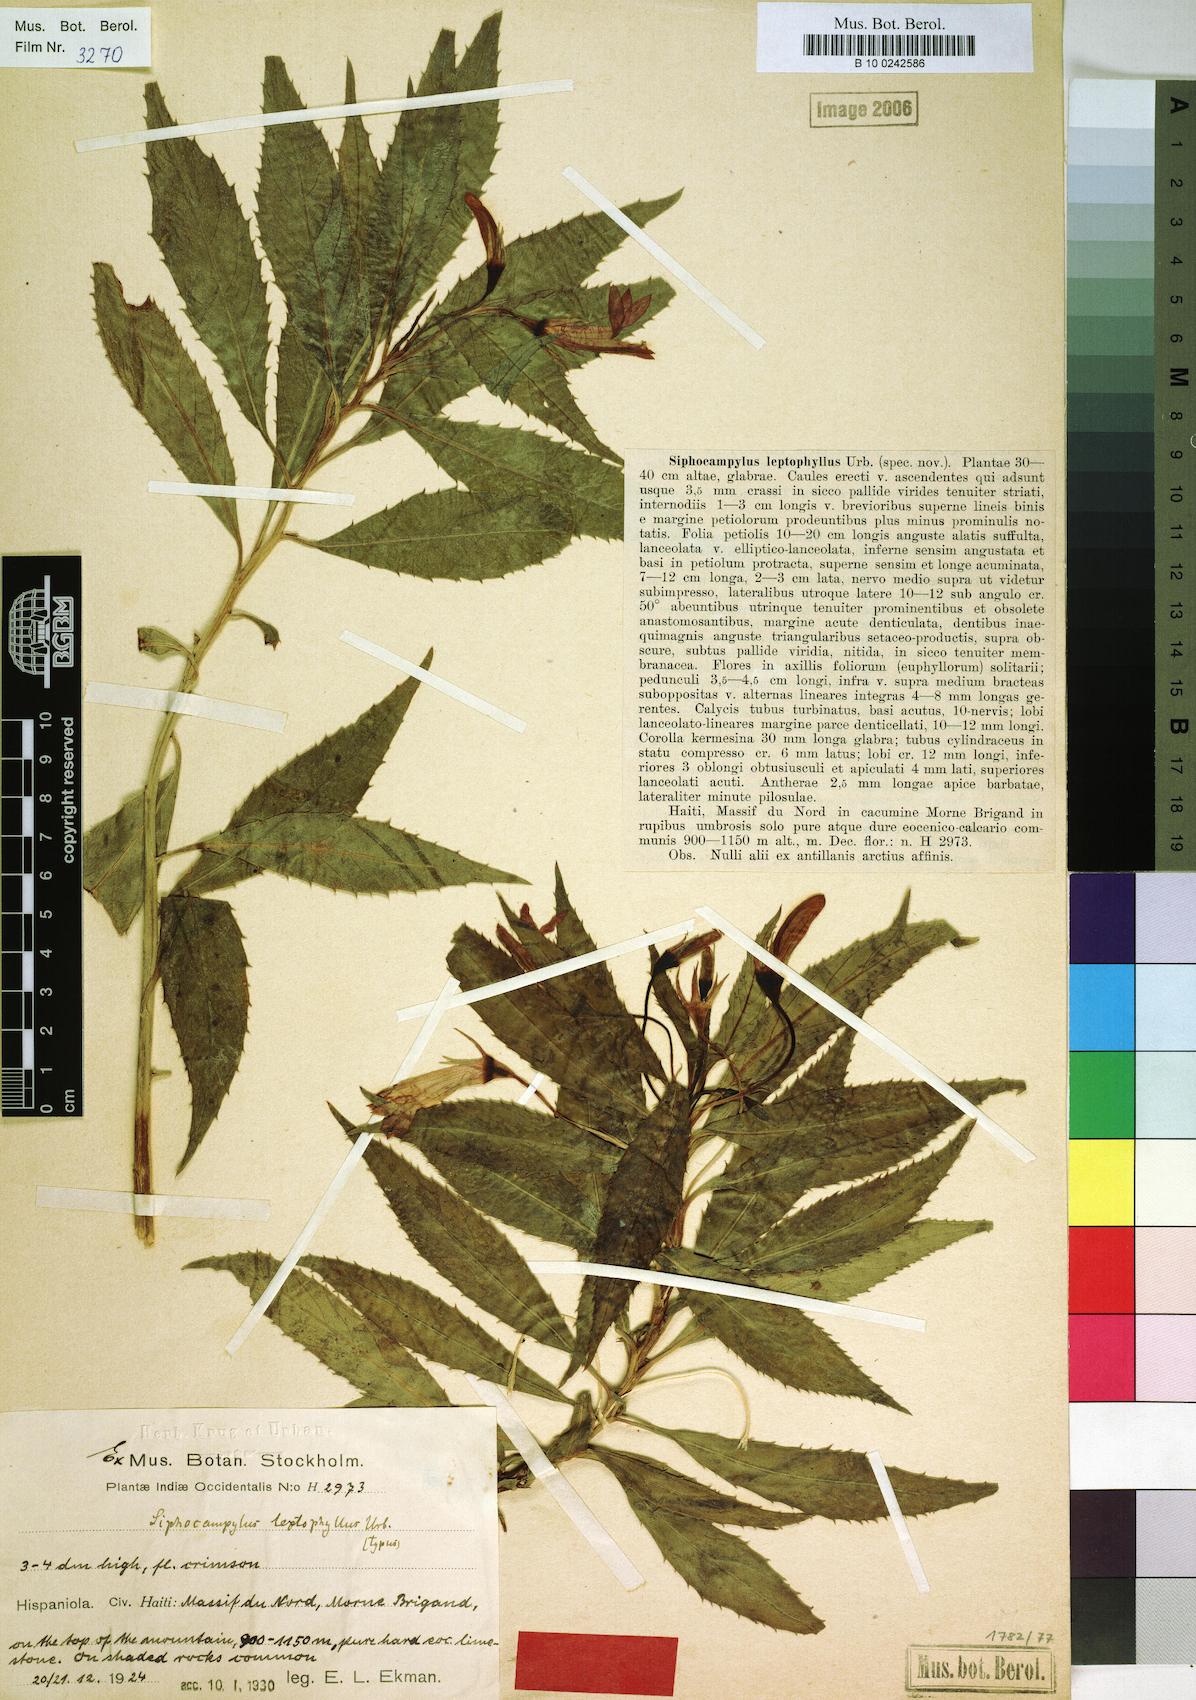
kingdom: Plantae
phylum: Tracheophyta
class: Magnoliopsida
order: Asterales
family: Campanulaceae
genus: Siphocampylus
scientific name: Siphocampylus leptophyllus
